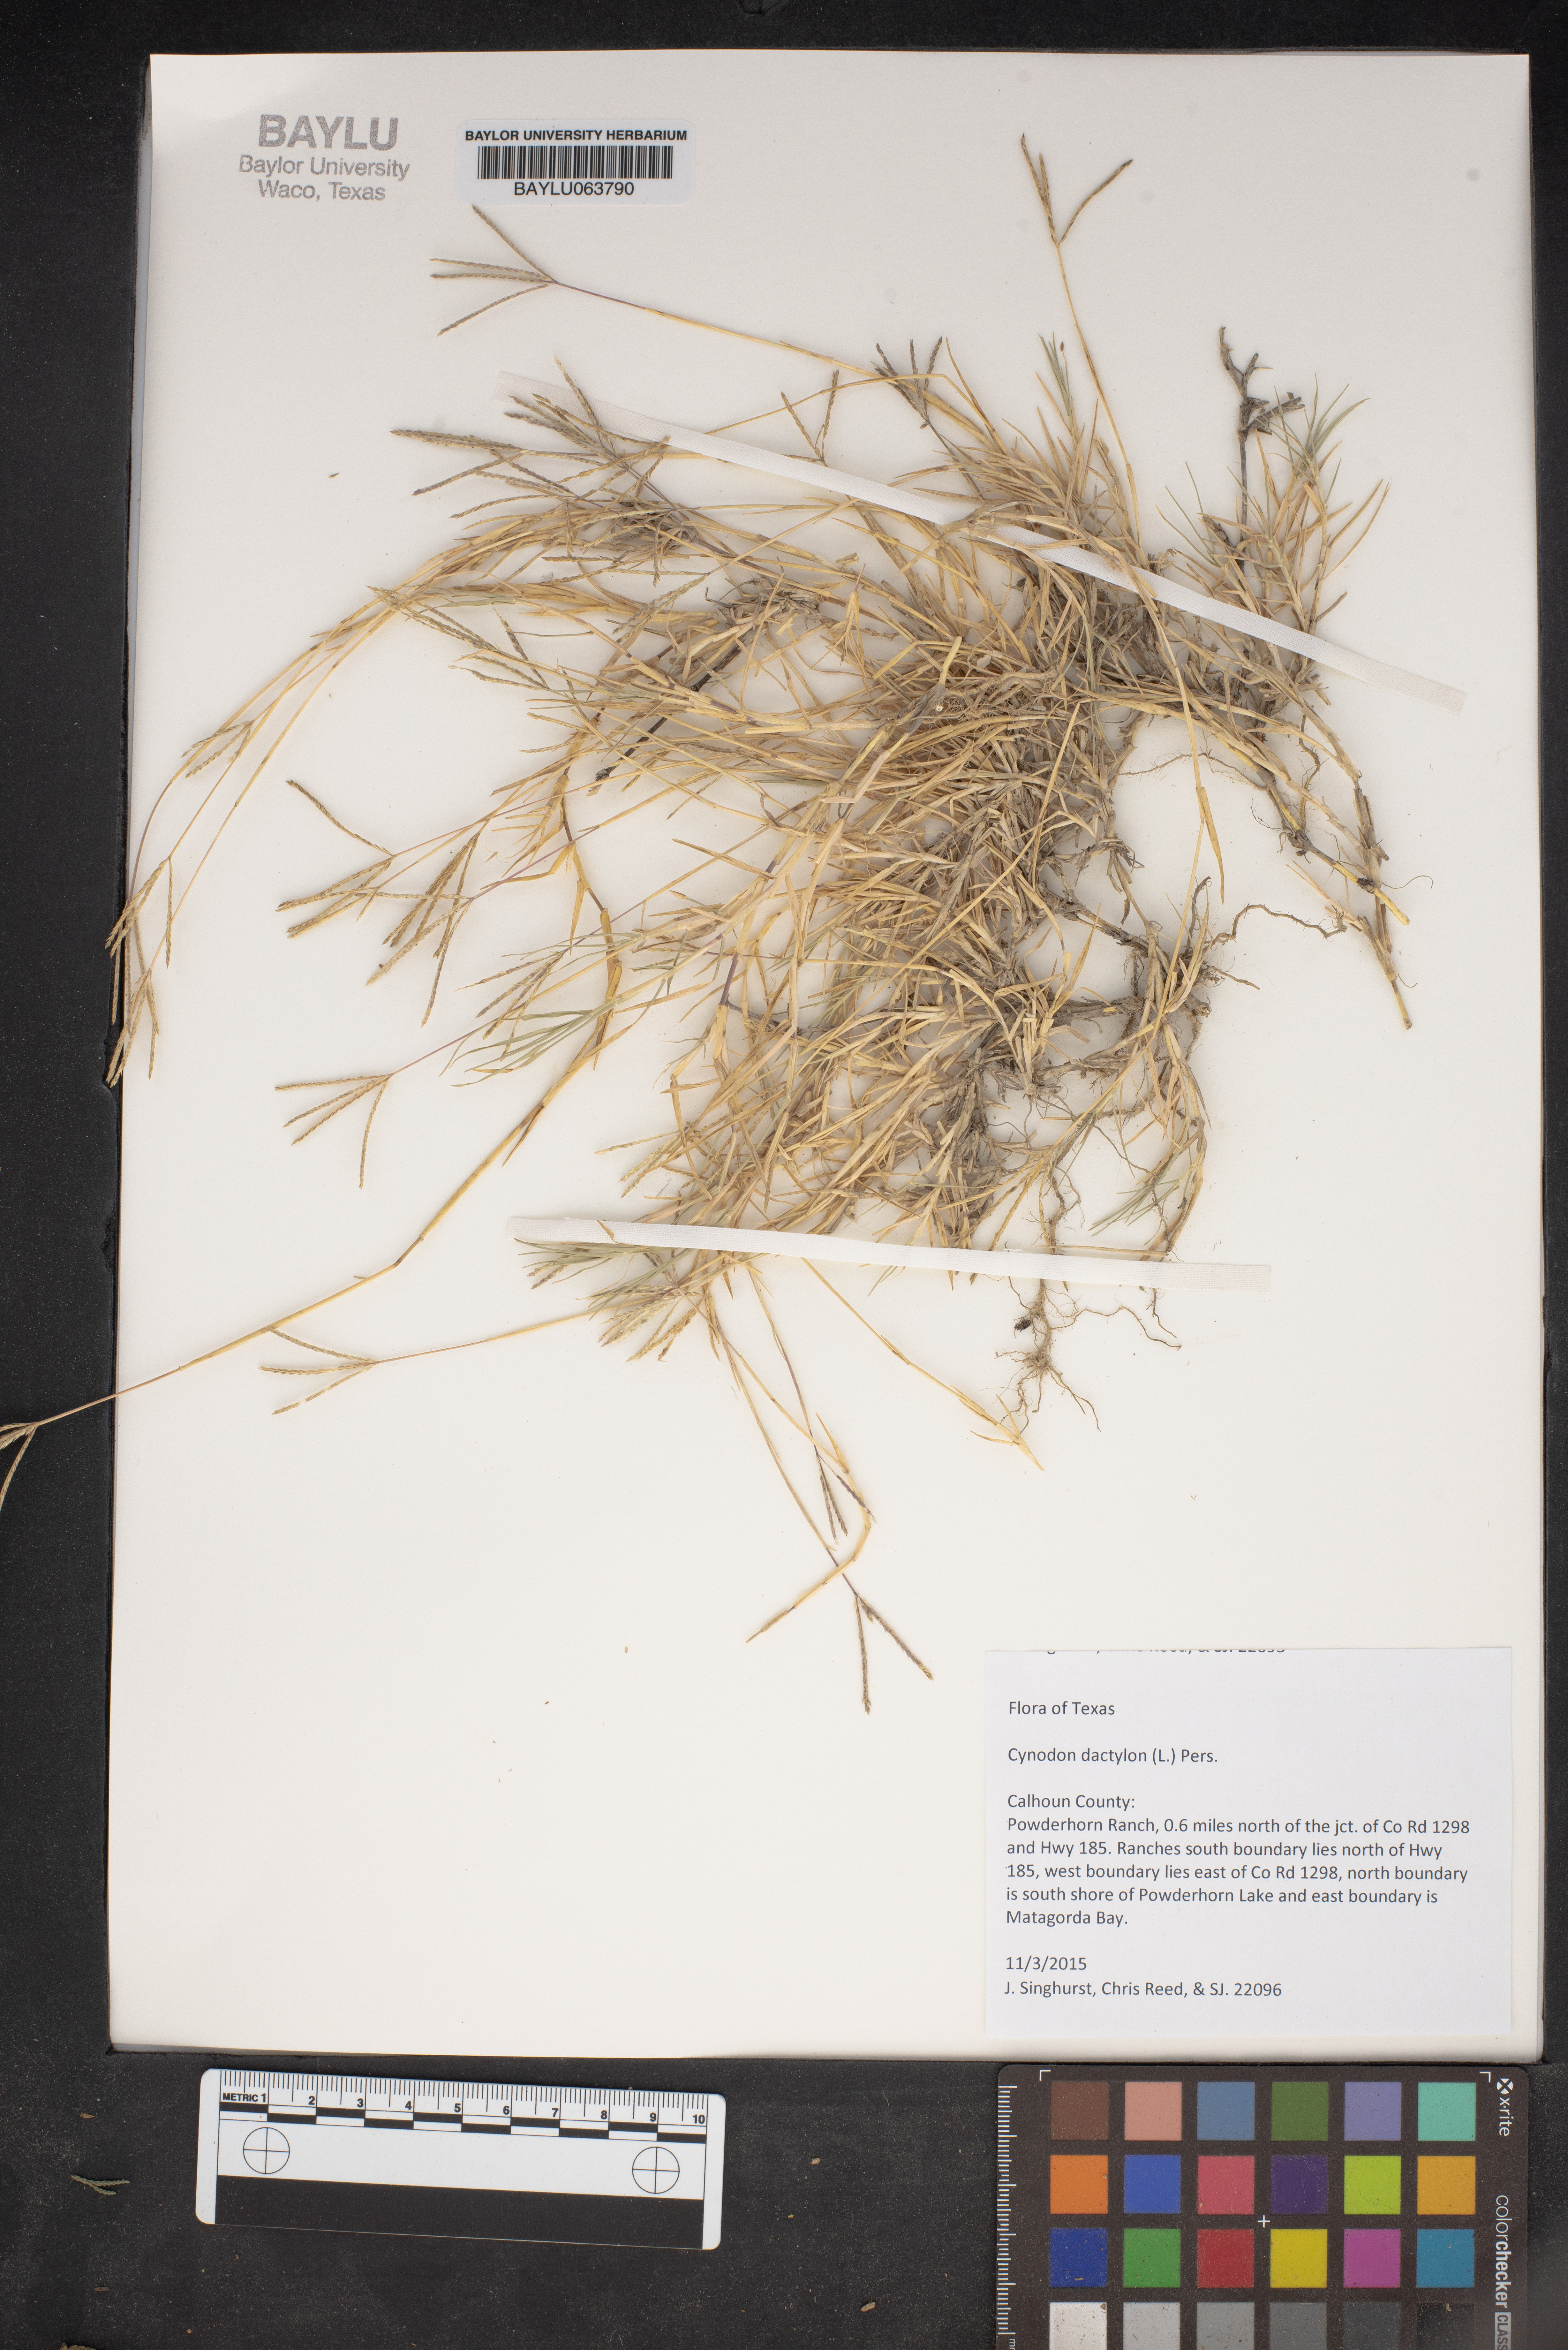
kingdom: Plantae
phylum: Tracheophyta
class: Liliopsida
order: Poales
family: Poaceae
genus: Cynodon
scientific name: Cynodon dactylon
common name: Bermuda grass
